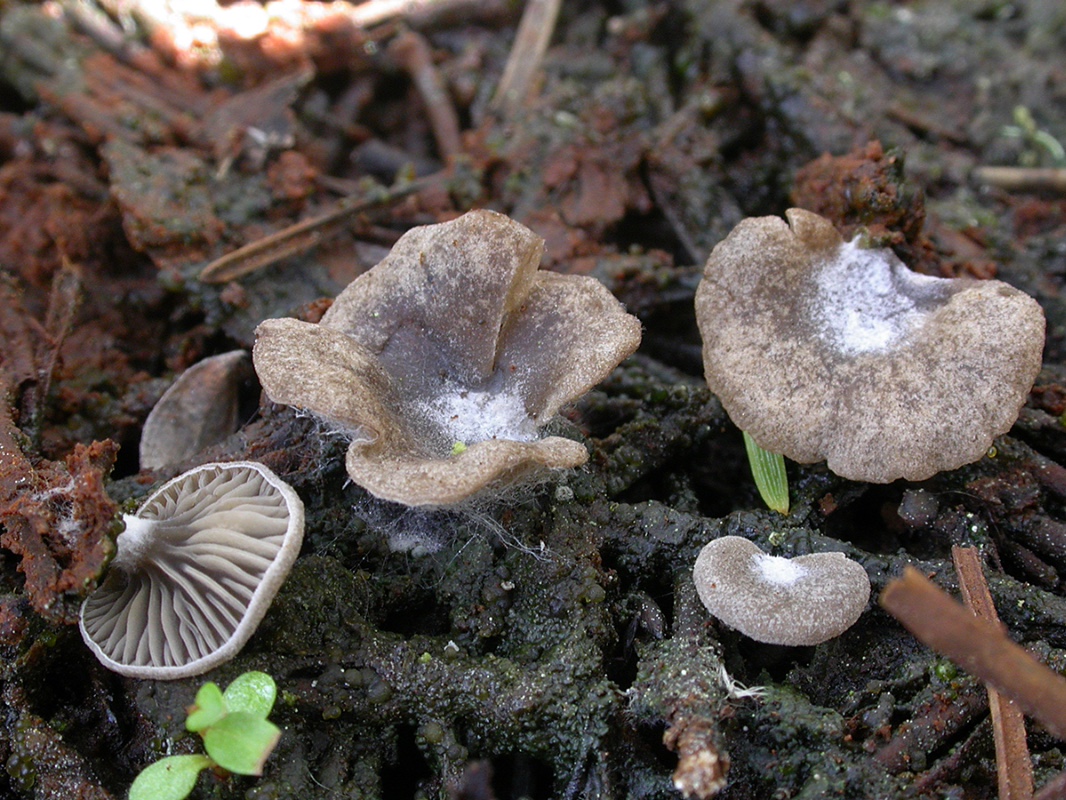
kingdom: Fungi
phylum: Basidiomycota
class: Agaricomycetes
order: Agaricales
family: Hygrophoraceae
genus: Arrhenia
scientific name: Arrhenia acerosa
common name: muslinge-fontænehat
